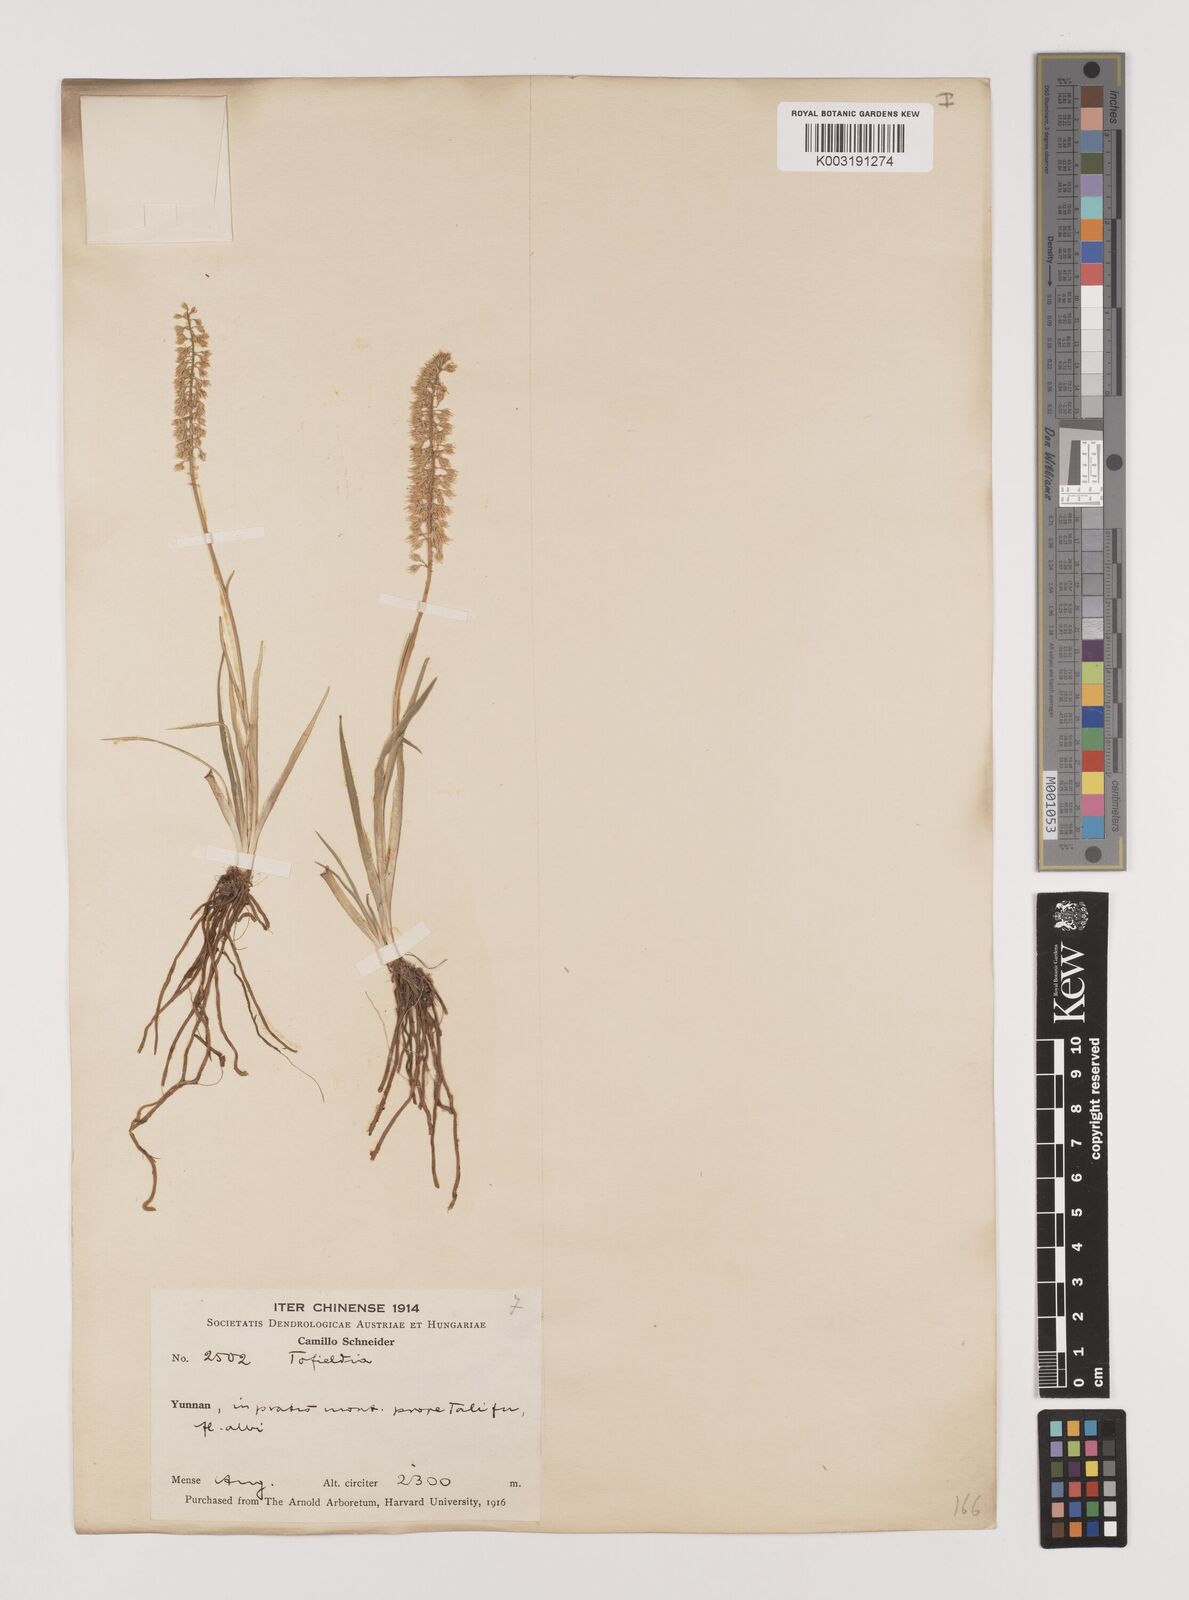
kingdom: Plantae
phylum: Tracheophyta
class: Liliopsida
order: Alismatales
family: Tofieldiaceae
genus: Tofieldia
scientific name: Tofieldia divergens
